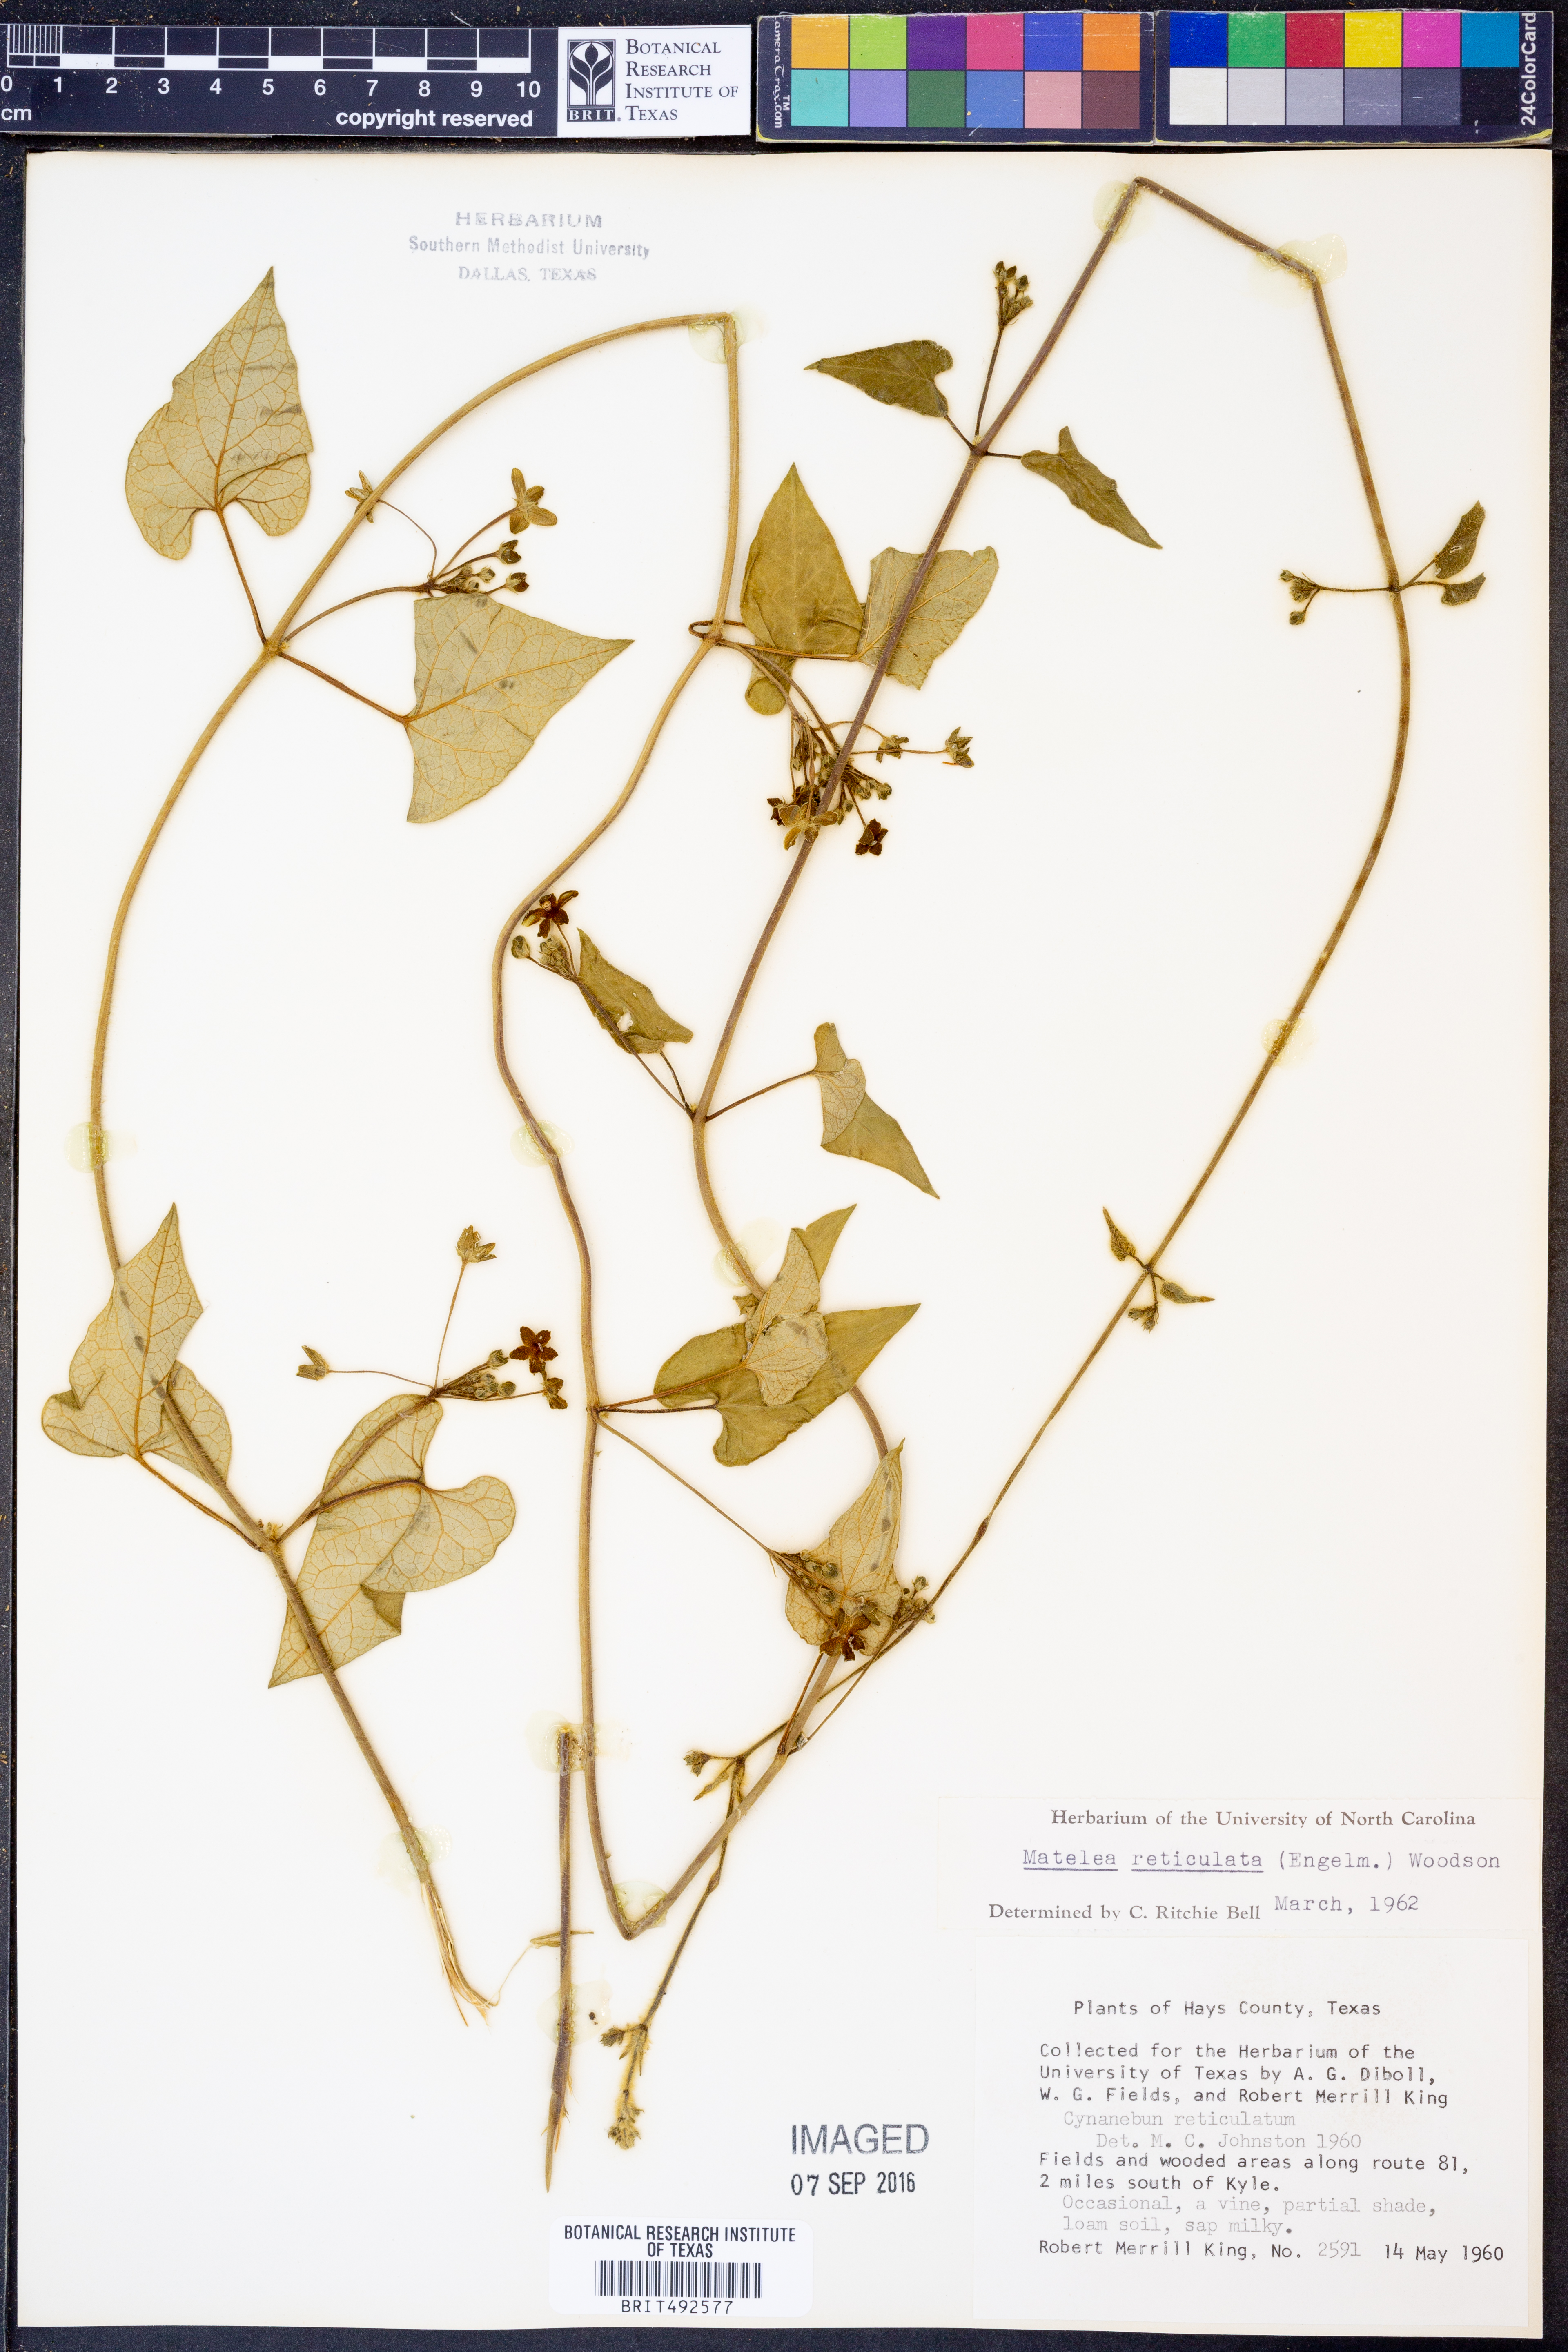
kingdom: Plantae
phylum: Tracheophyta
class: Magnoliopsida
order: Gentianales
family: Apocynaceae
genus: Dictyanthus
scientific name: Dictyanthus reticulatus
